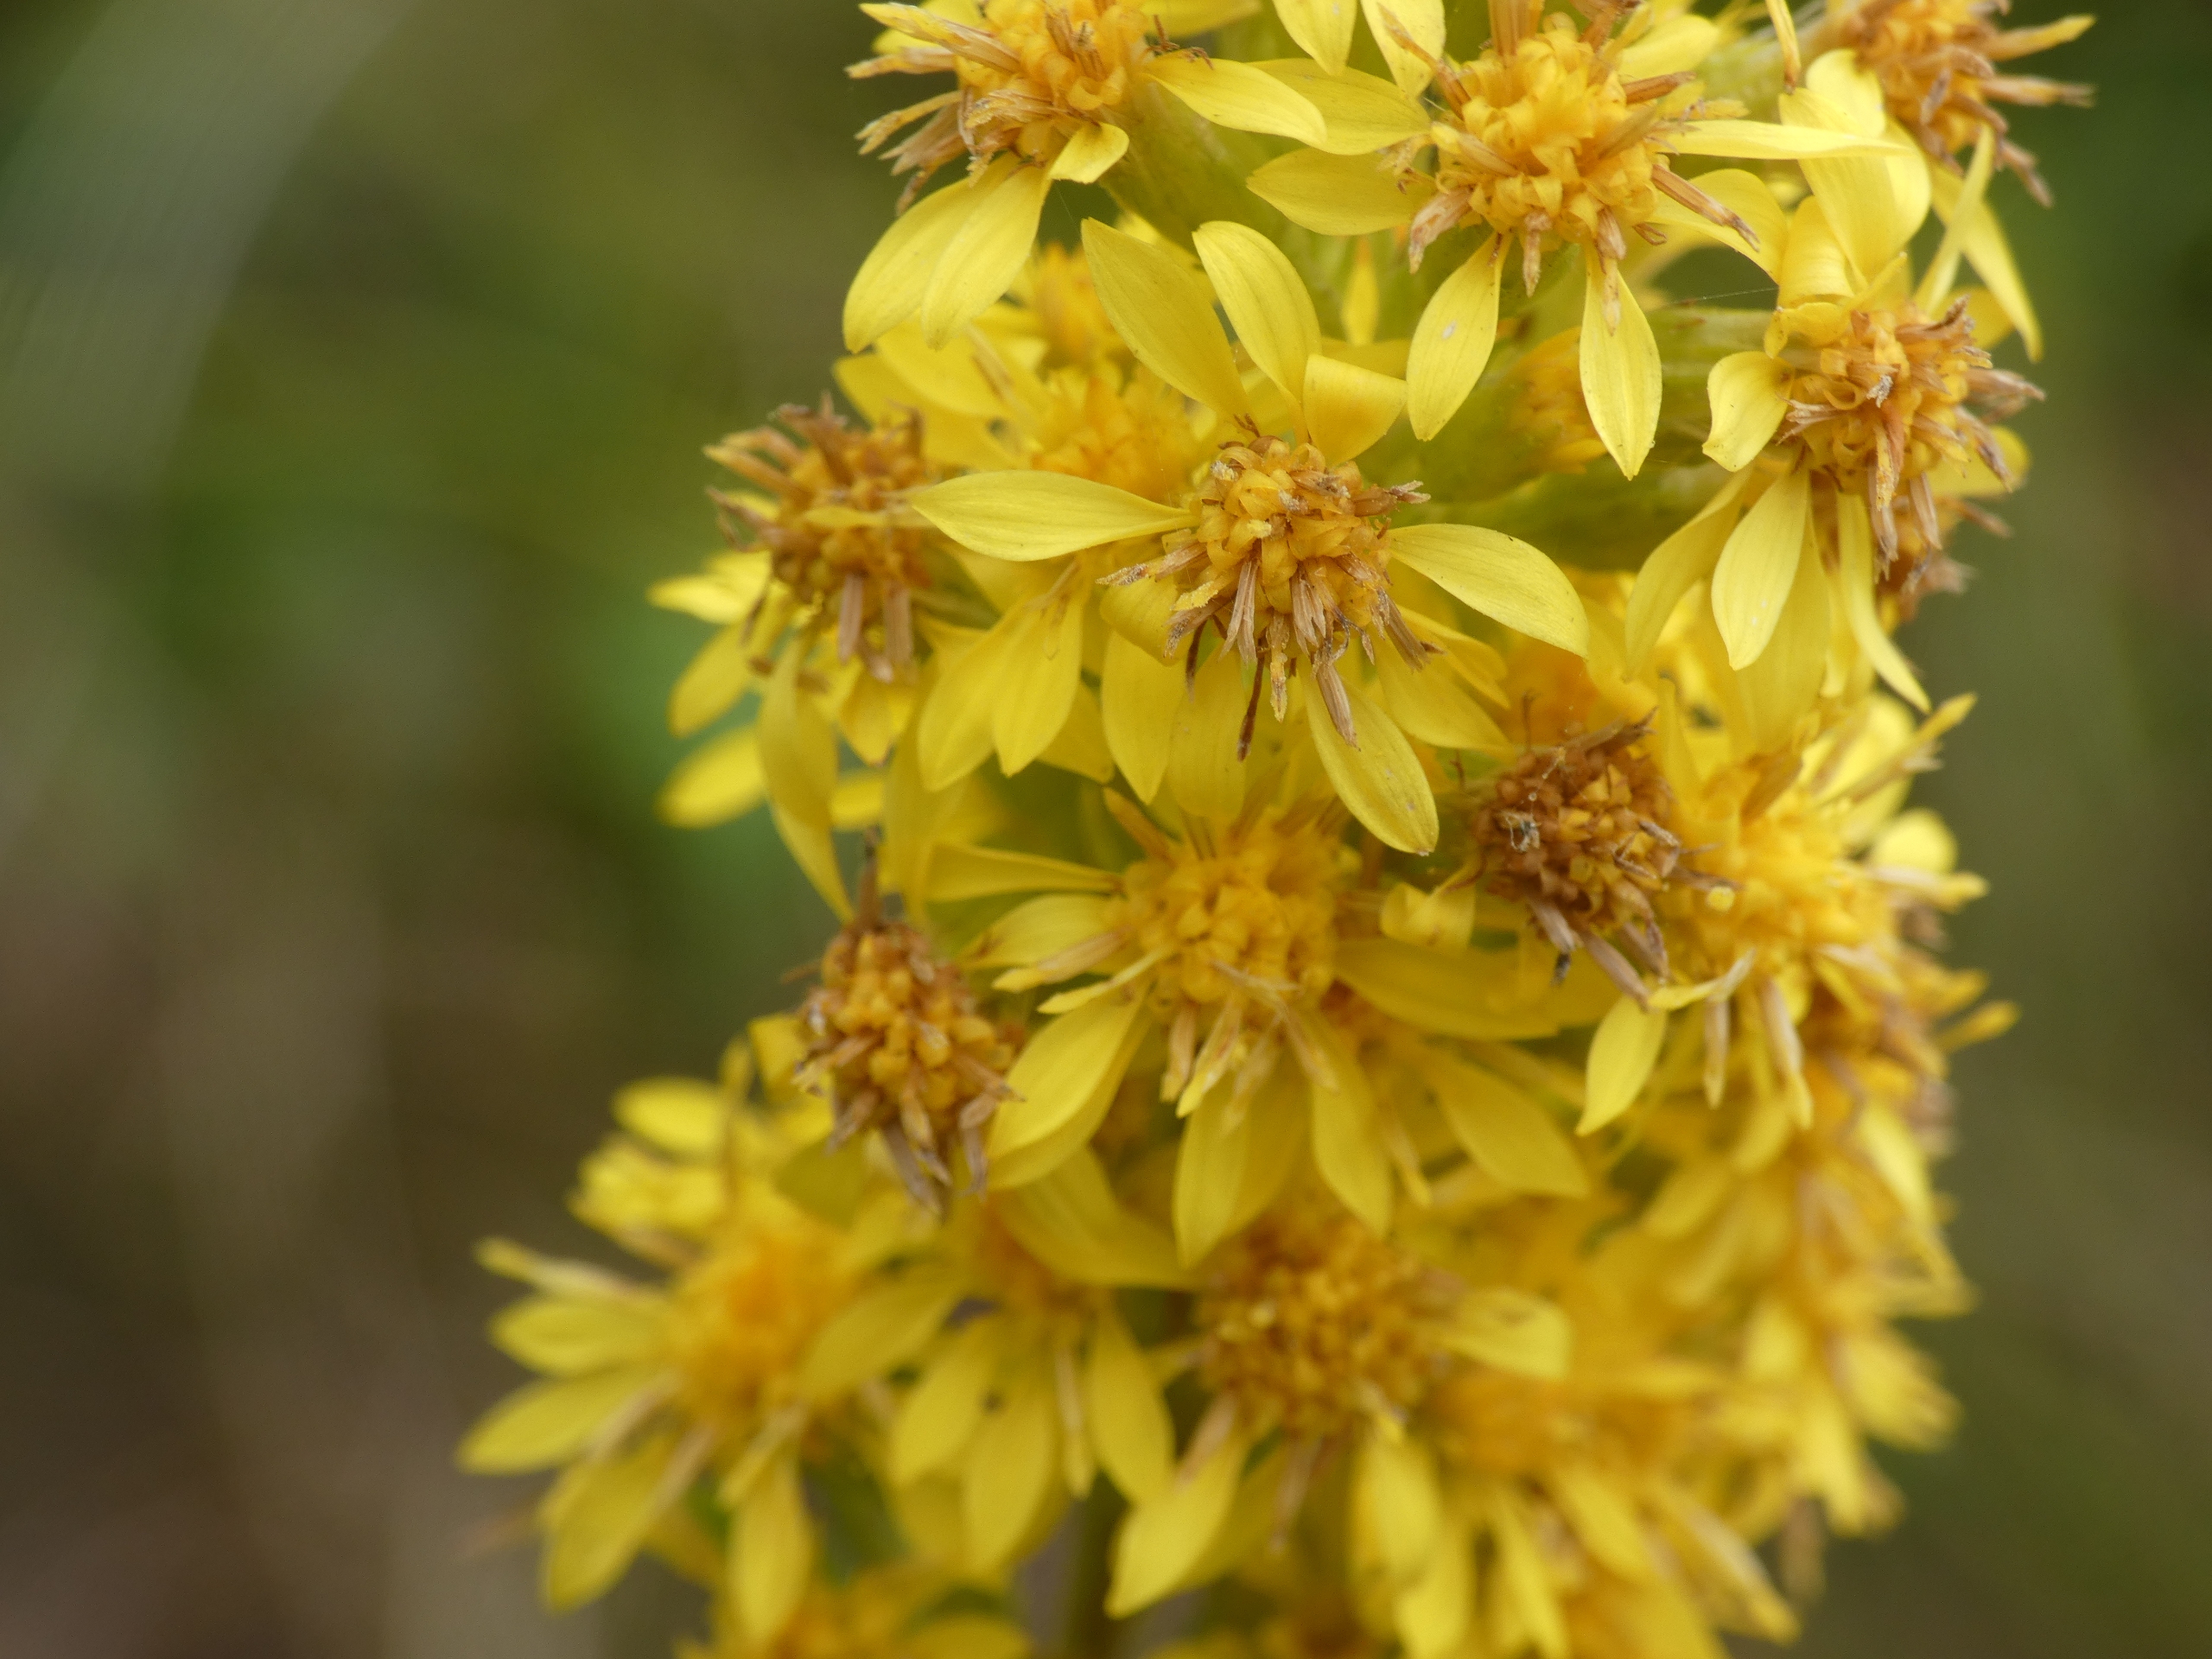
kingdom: Plantae
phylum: Tracheophyta
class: Magnoliopsida
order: Asterales
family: Asteraceae
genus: Solidago
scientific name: Solidago virgaurea
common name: Almindelig gyldenris
